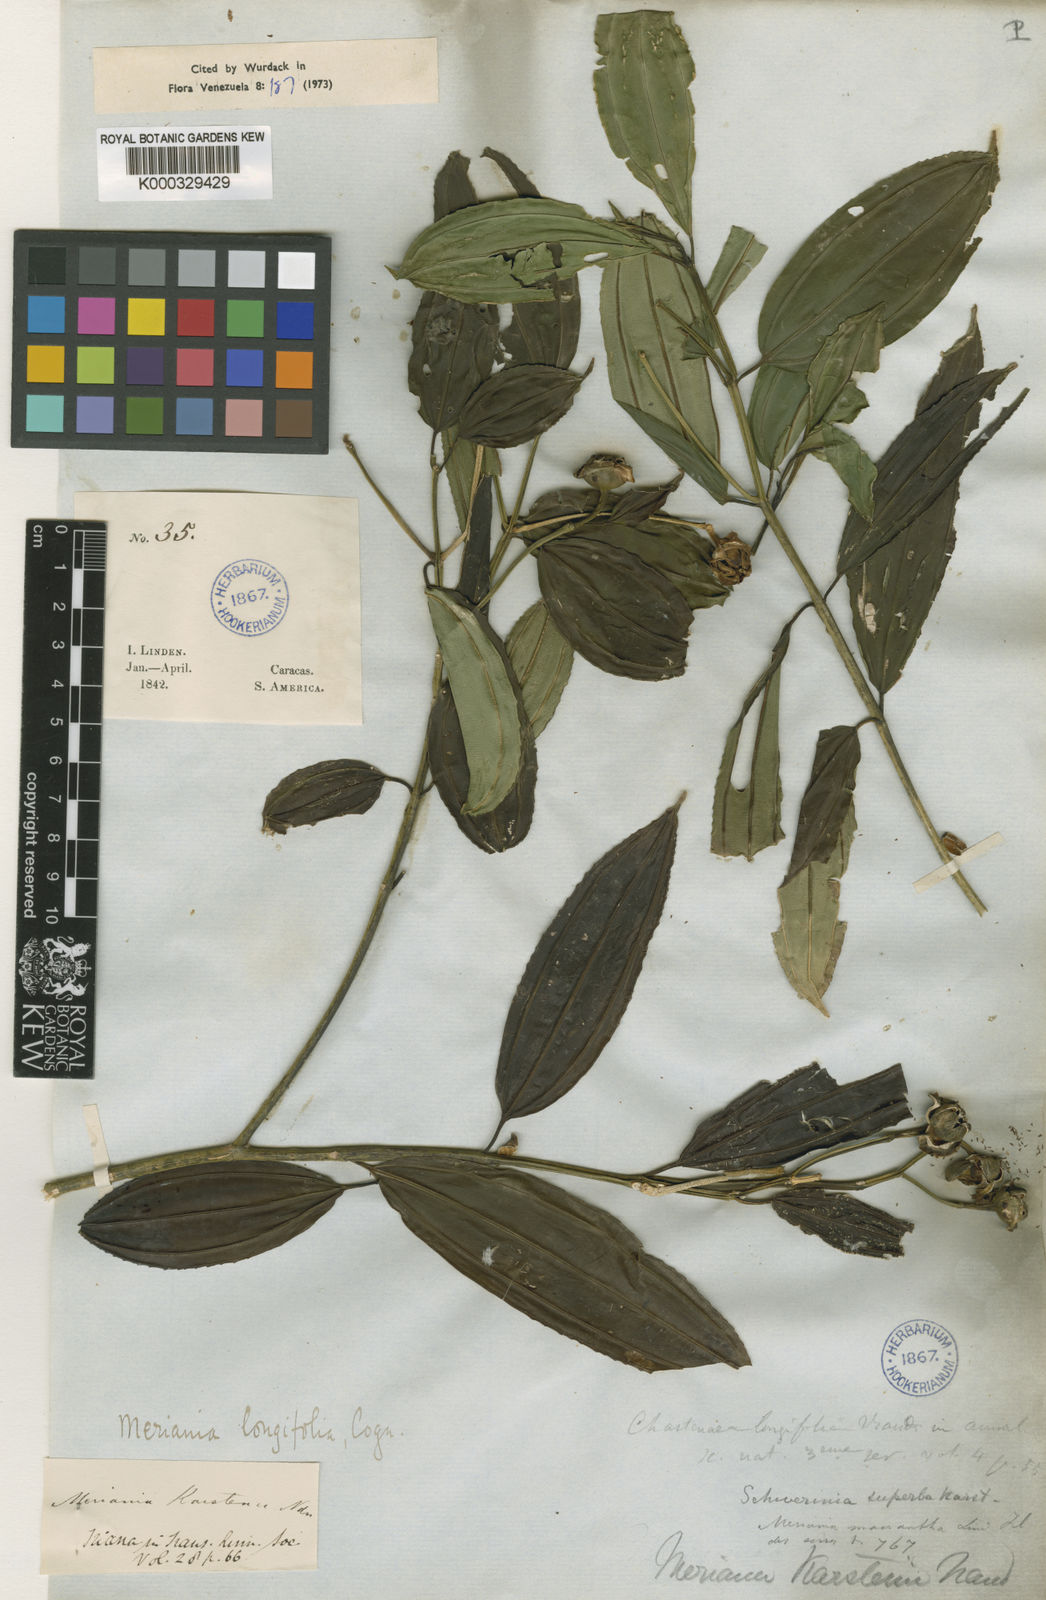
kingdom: Plantae
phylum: Tracheophyta
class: Magnoliopsida
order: Myrtales
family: Melastomataceae
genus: Meriania
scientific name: Meriania longifolia
